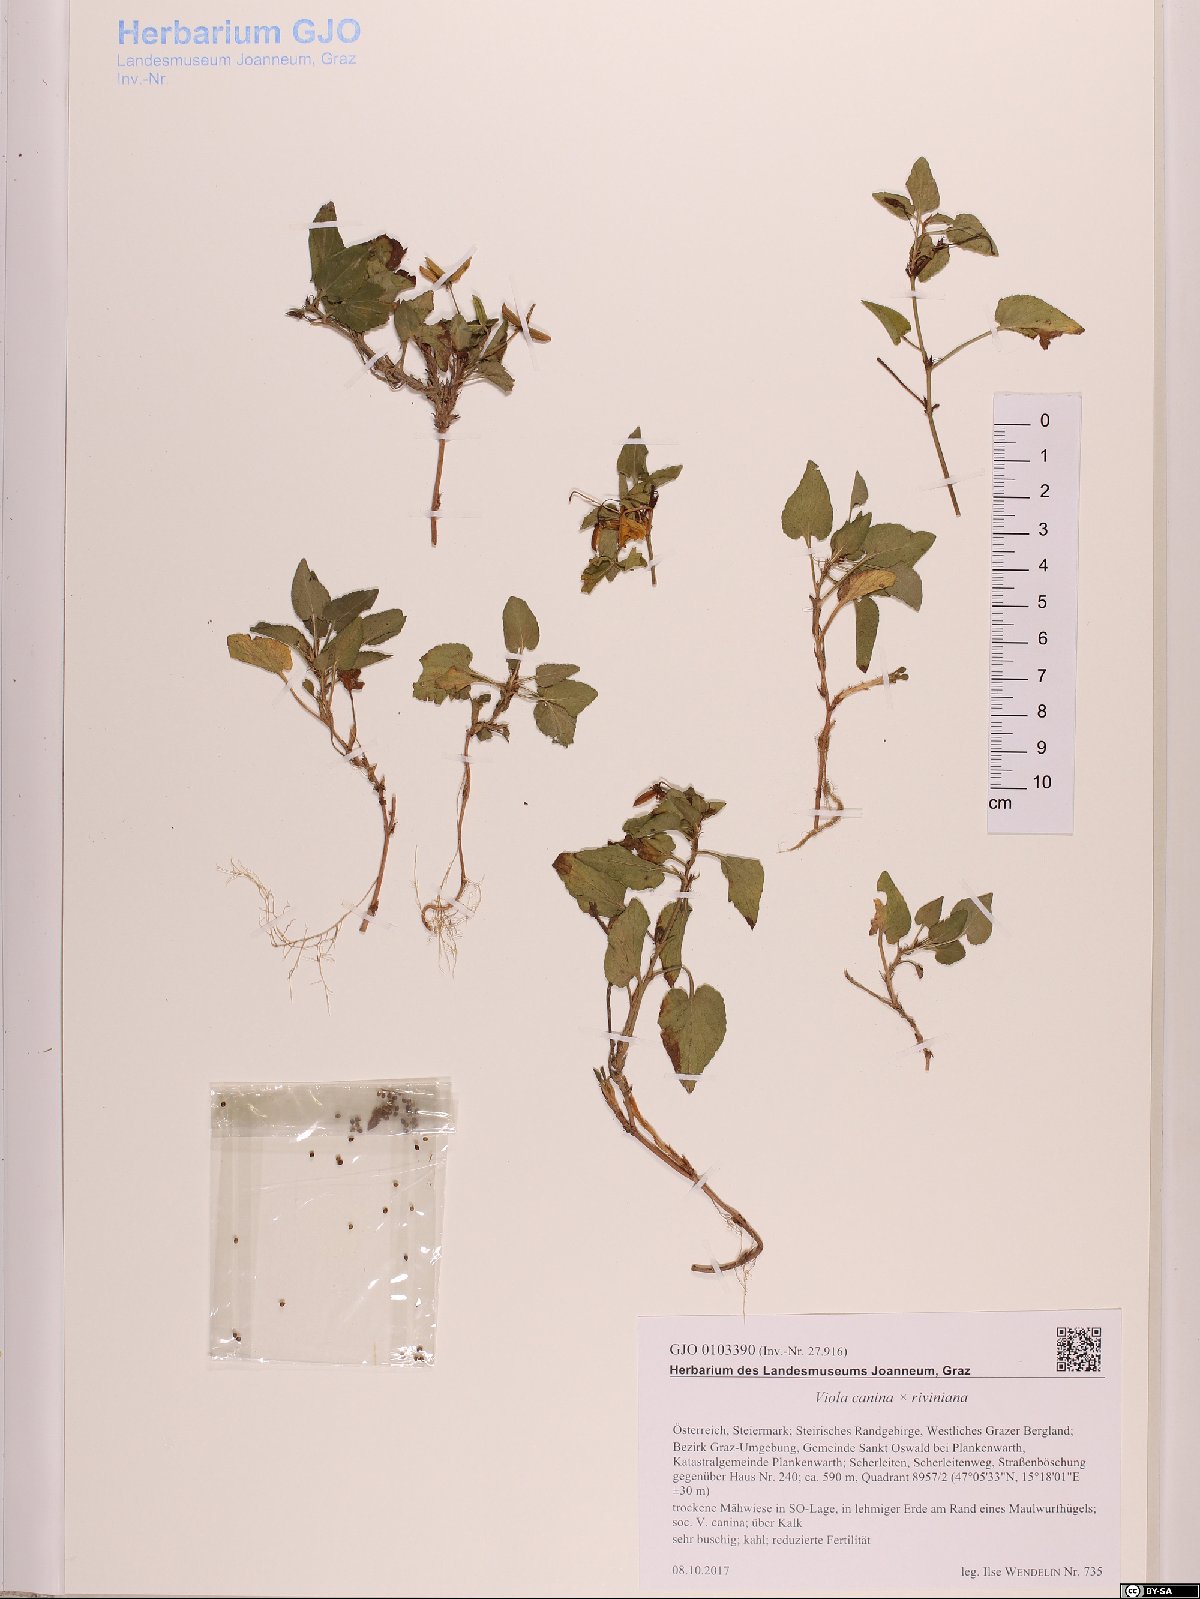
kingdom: Plantae
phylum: Tracheophyta
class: Magnoliopsida
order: Malpighiales
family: Violaceae
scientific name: Violaceae
